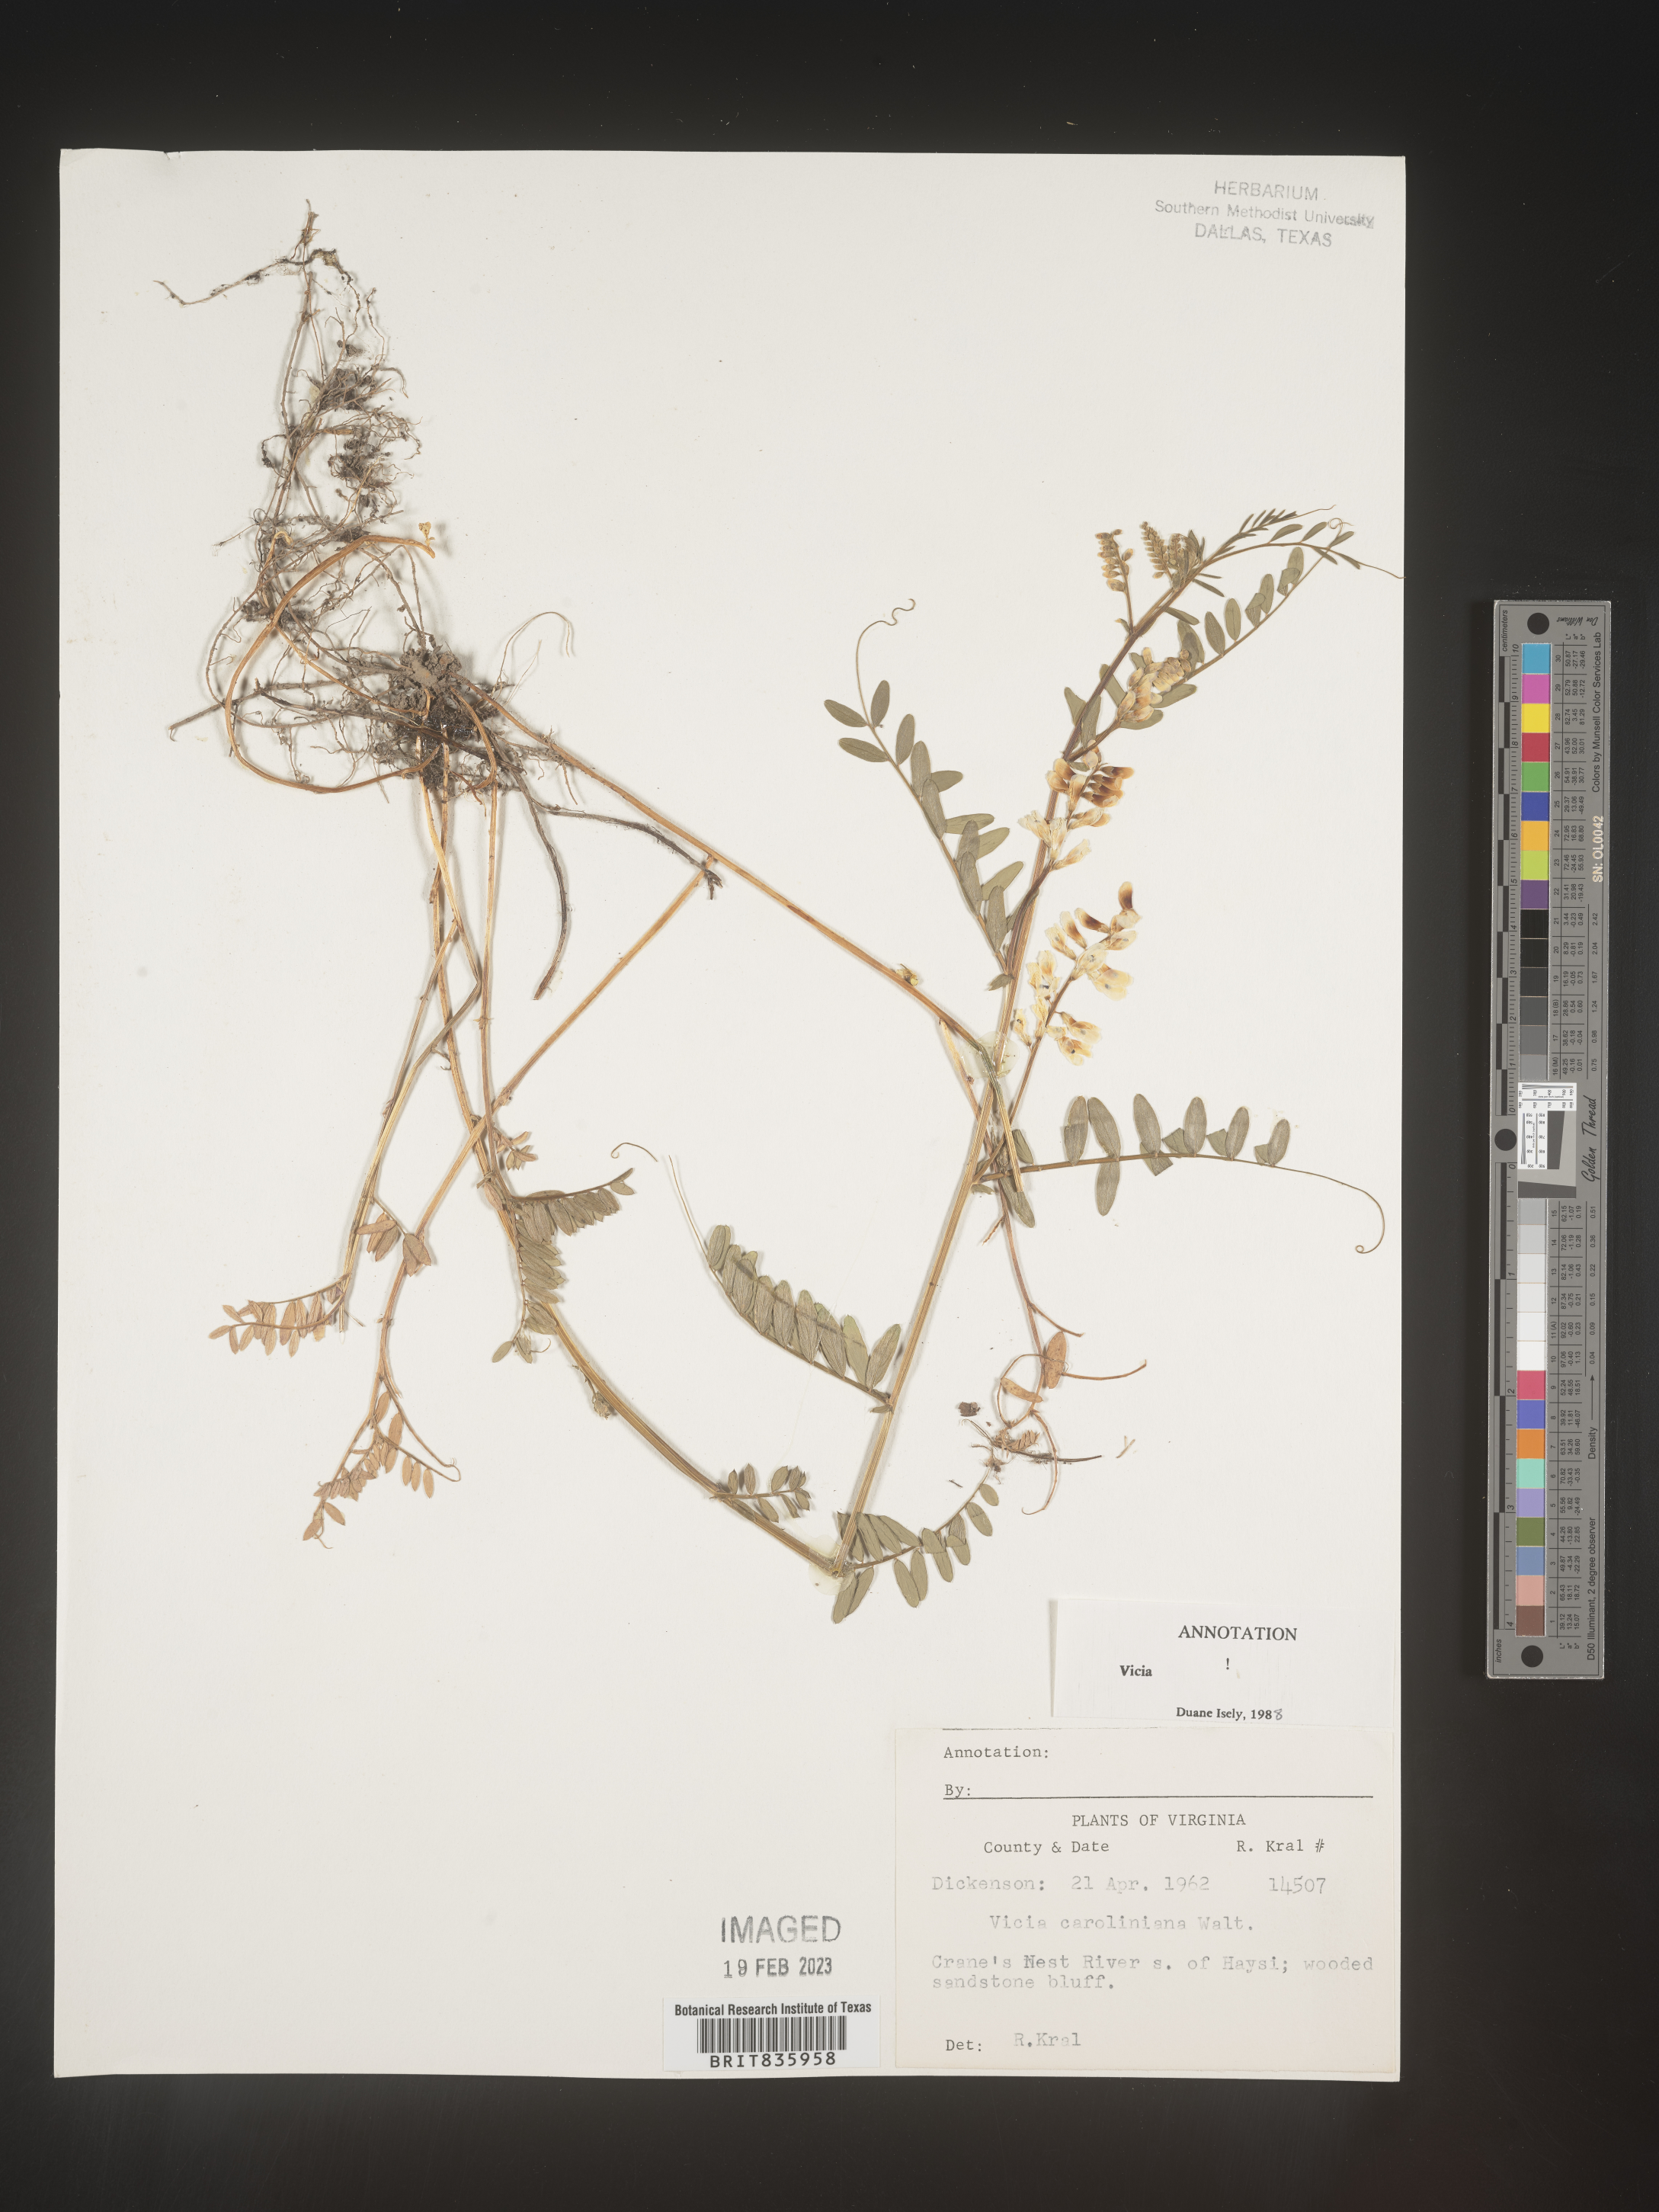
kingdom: Plantae
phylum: Tracheophyta
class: Magnoliopsida
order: Fabales
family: Fabaceae
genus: Vicia
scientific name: Vicia caroliniana
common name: Carolina vetch
